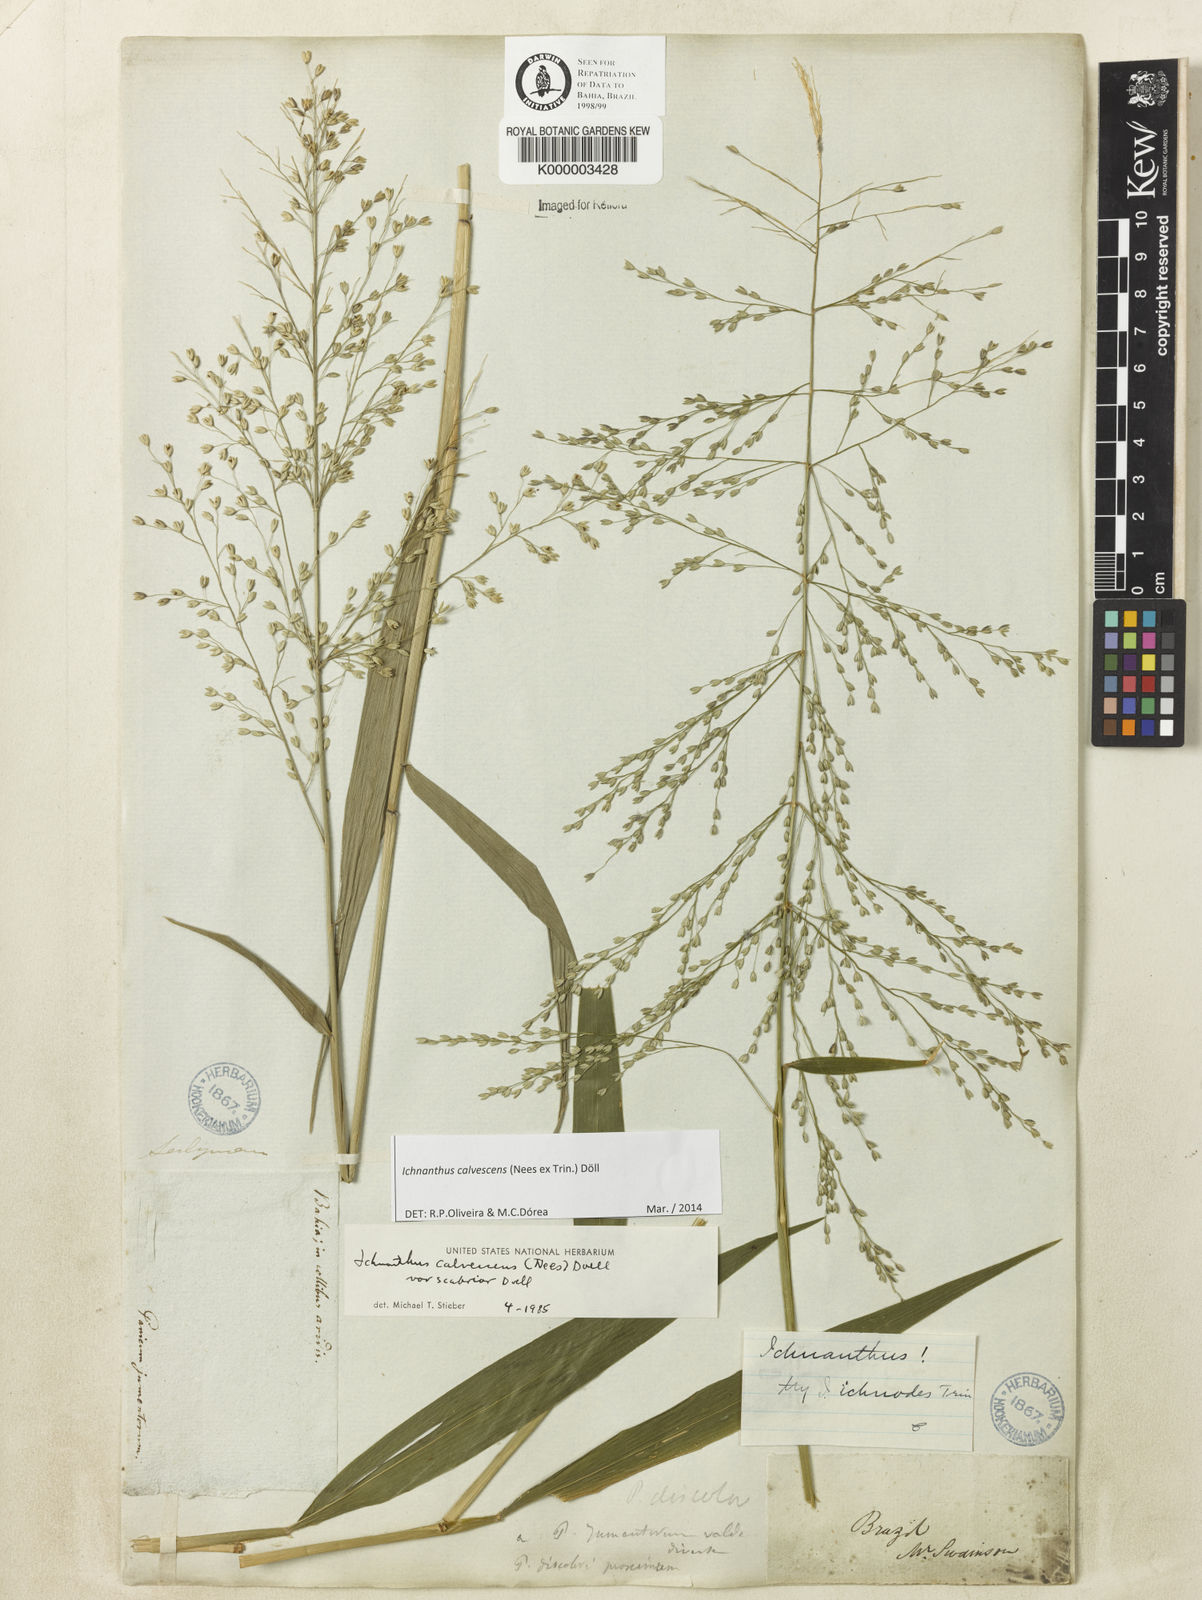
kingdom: Plantae
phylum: Tracheophyta
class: Liliopsida
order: Poales
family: Poaceae
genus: Ichnanthus
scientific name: Ichnanthus
